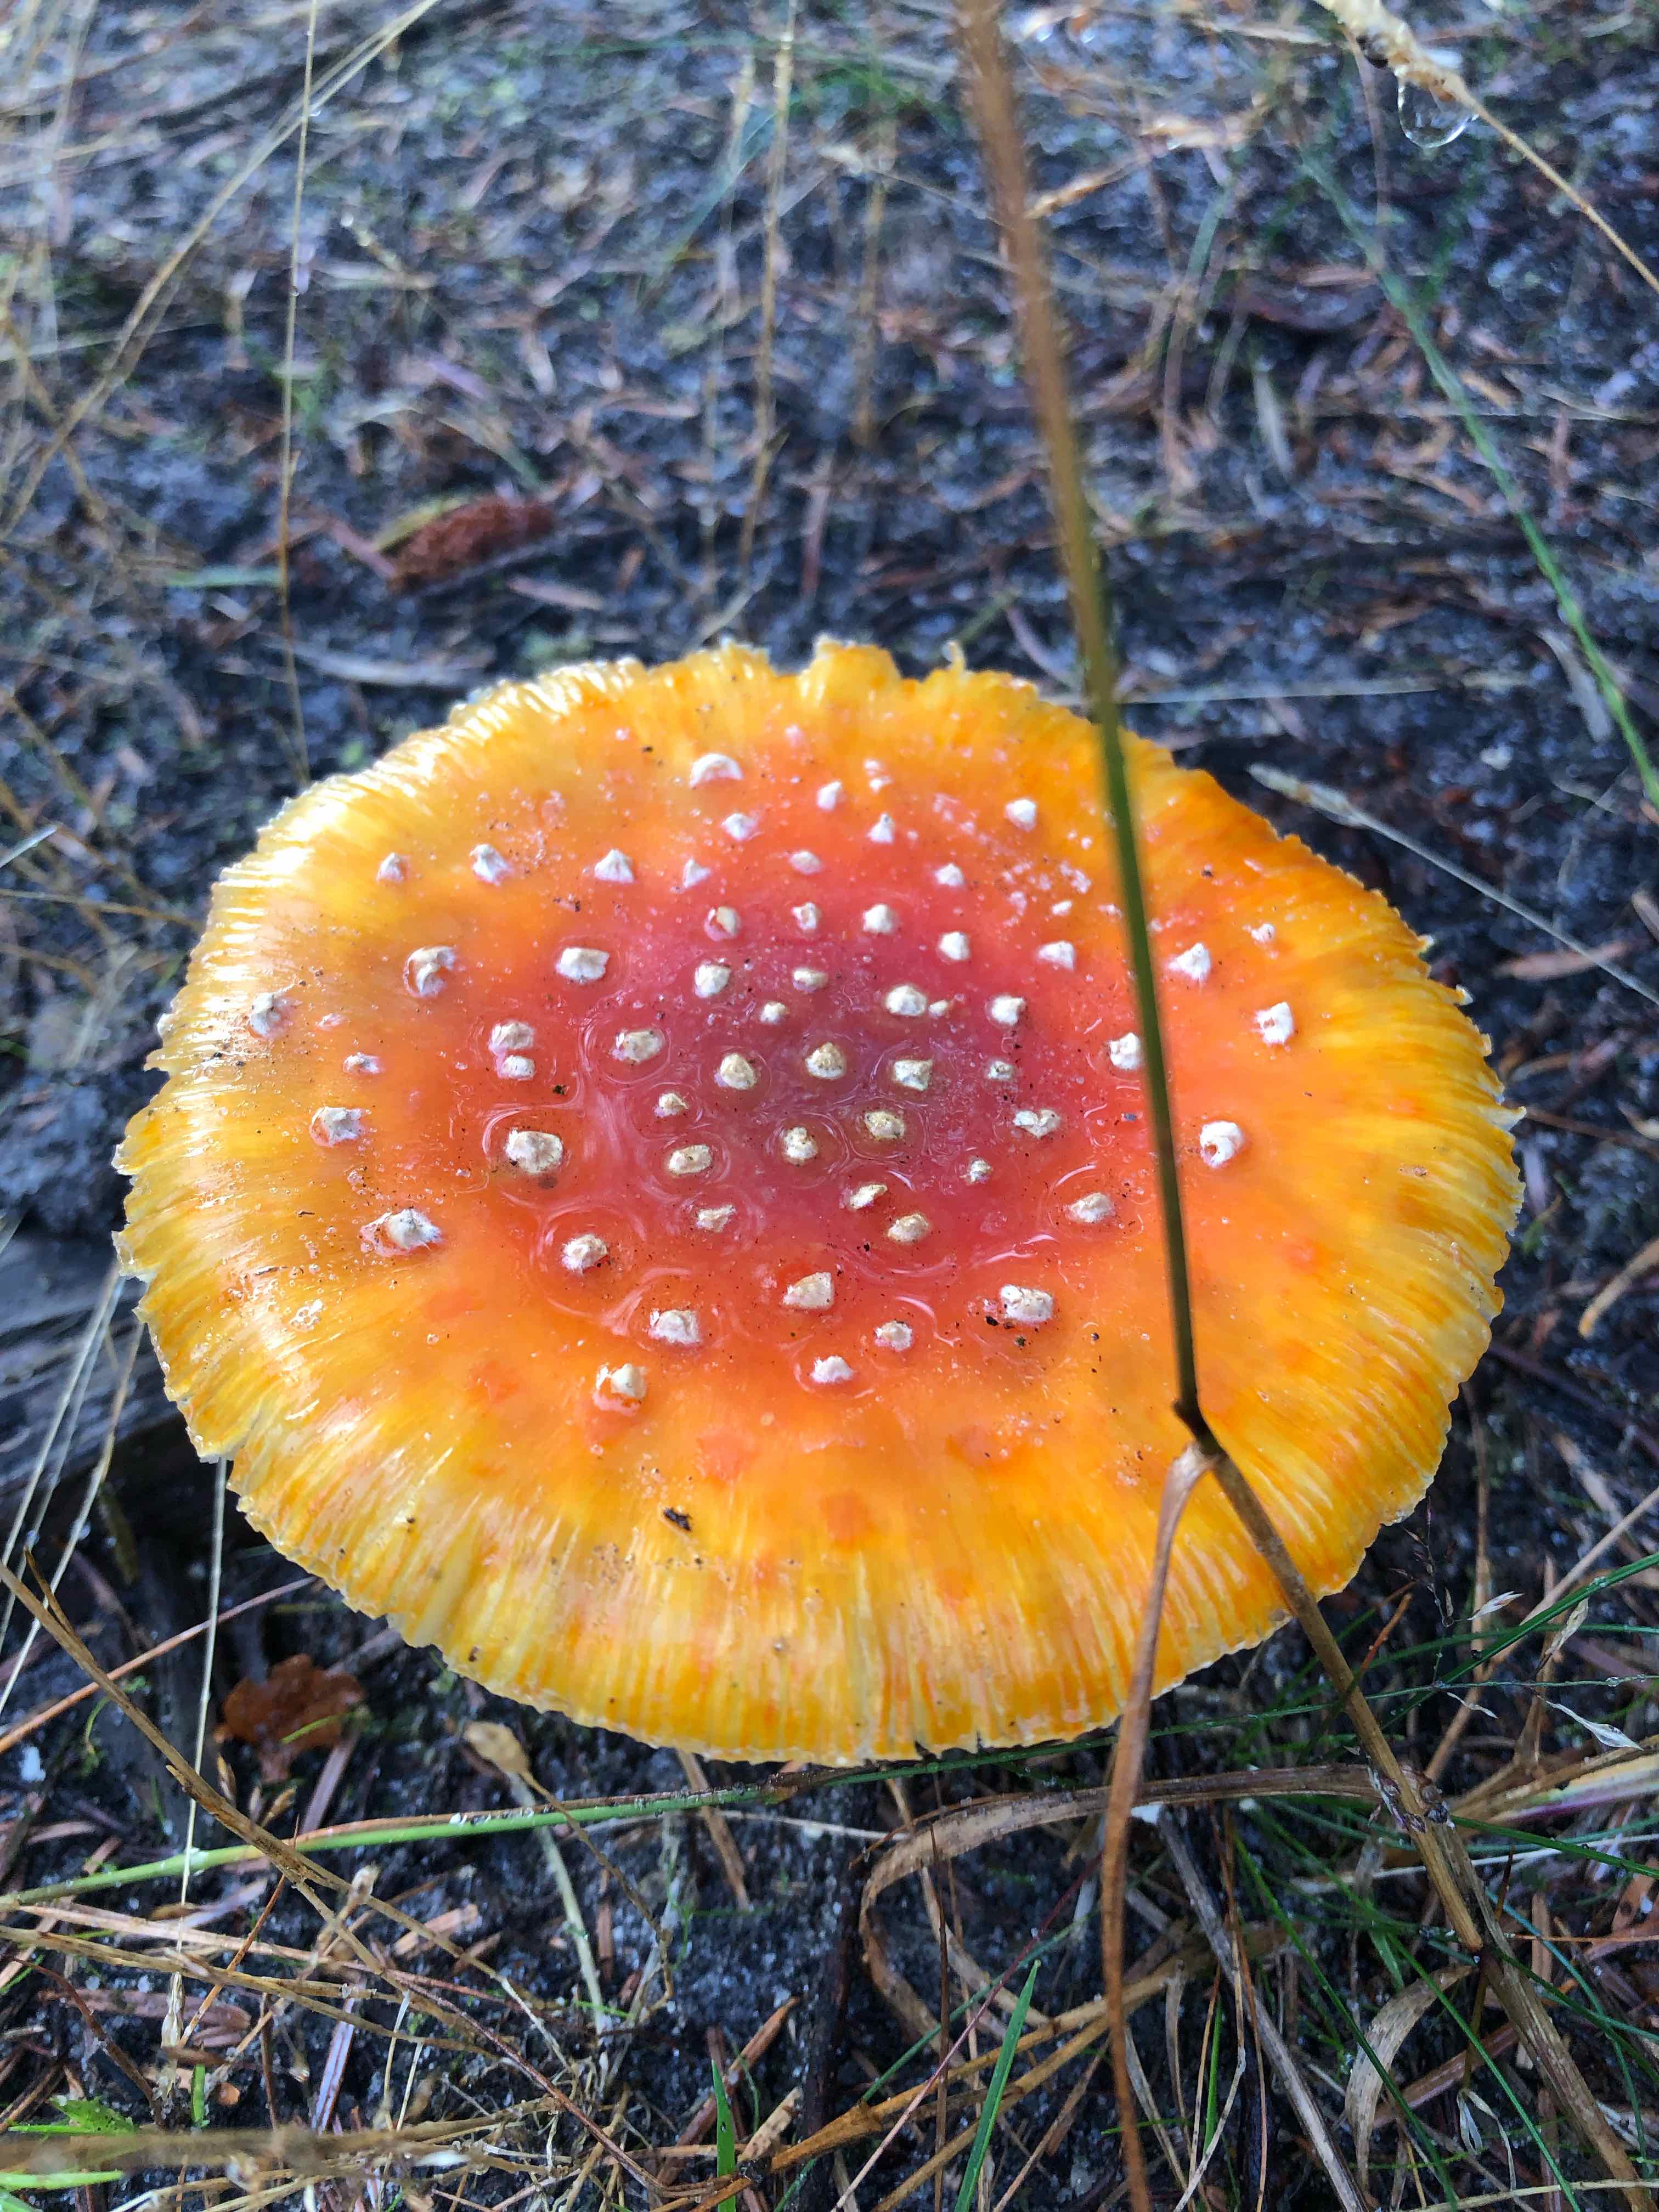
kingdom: Fungi
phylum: Basidiomycota
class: Agaricomycetes
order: Agaricales
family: Amanitaceae
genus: Amanita
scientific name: Amanita muscaria
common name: rød fluesvamp
